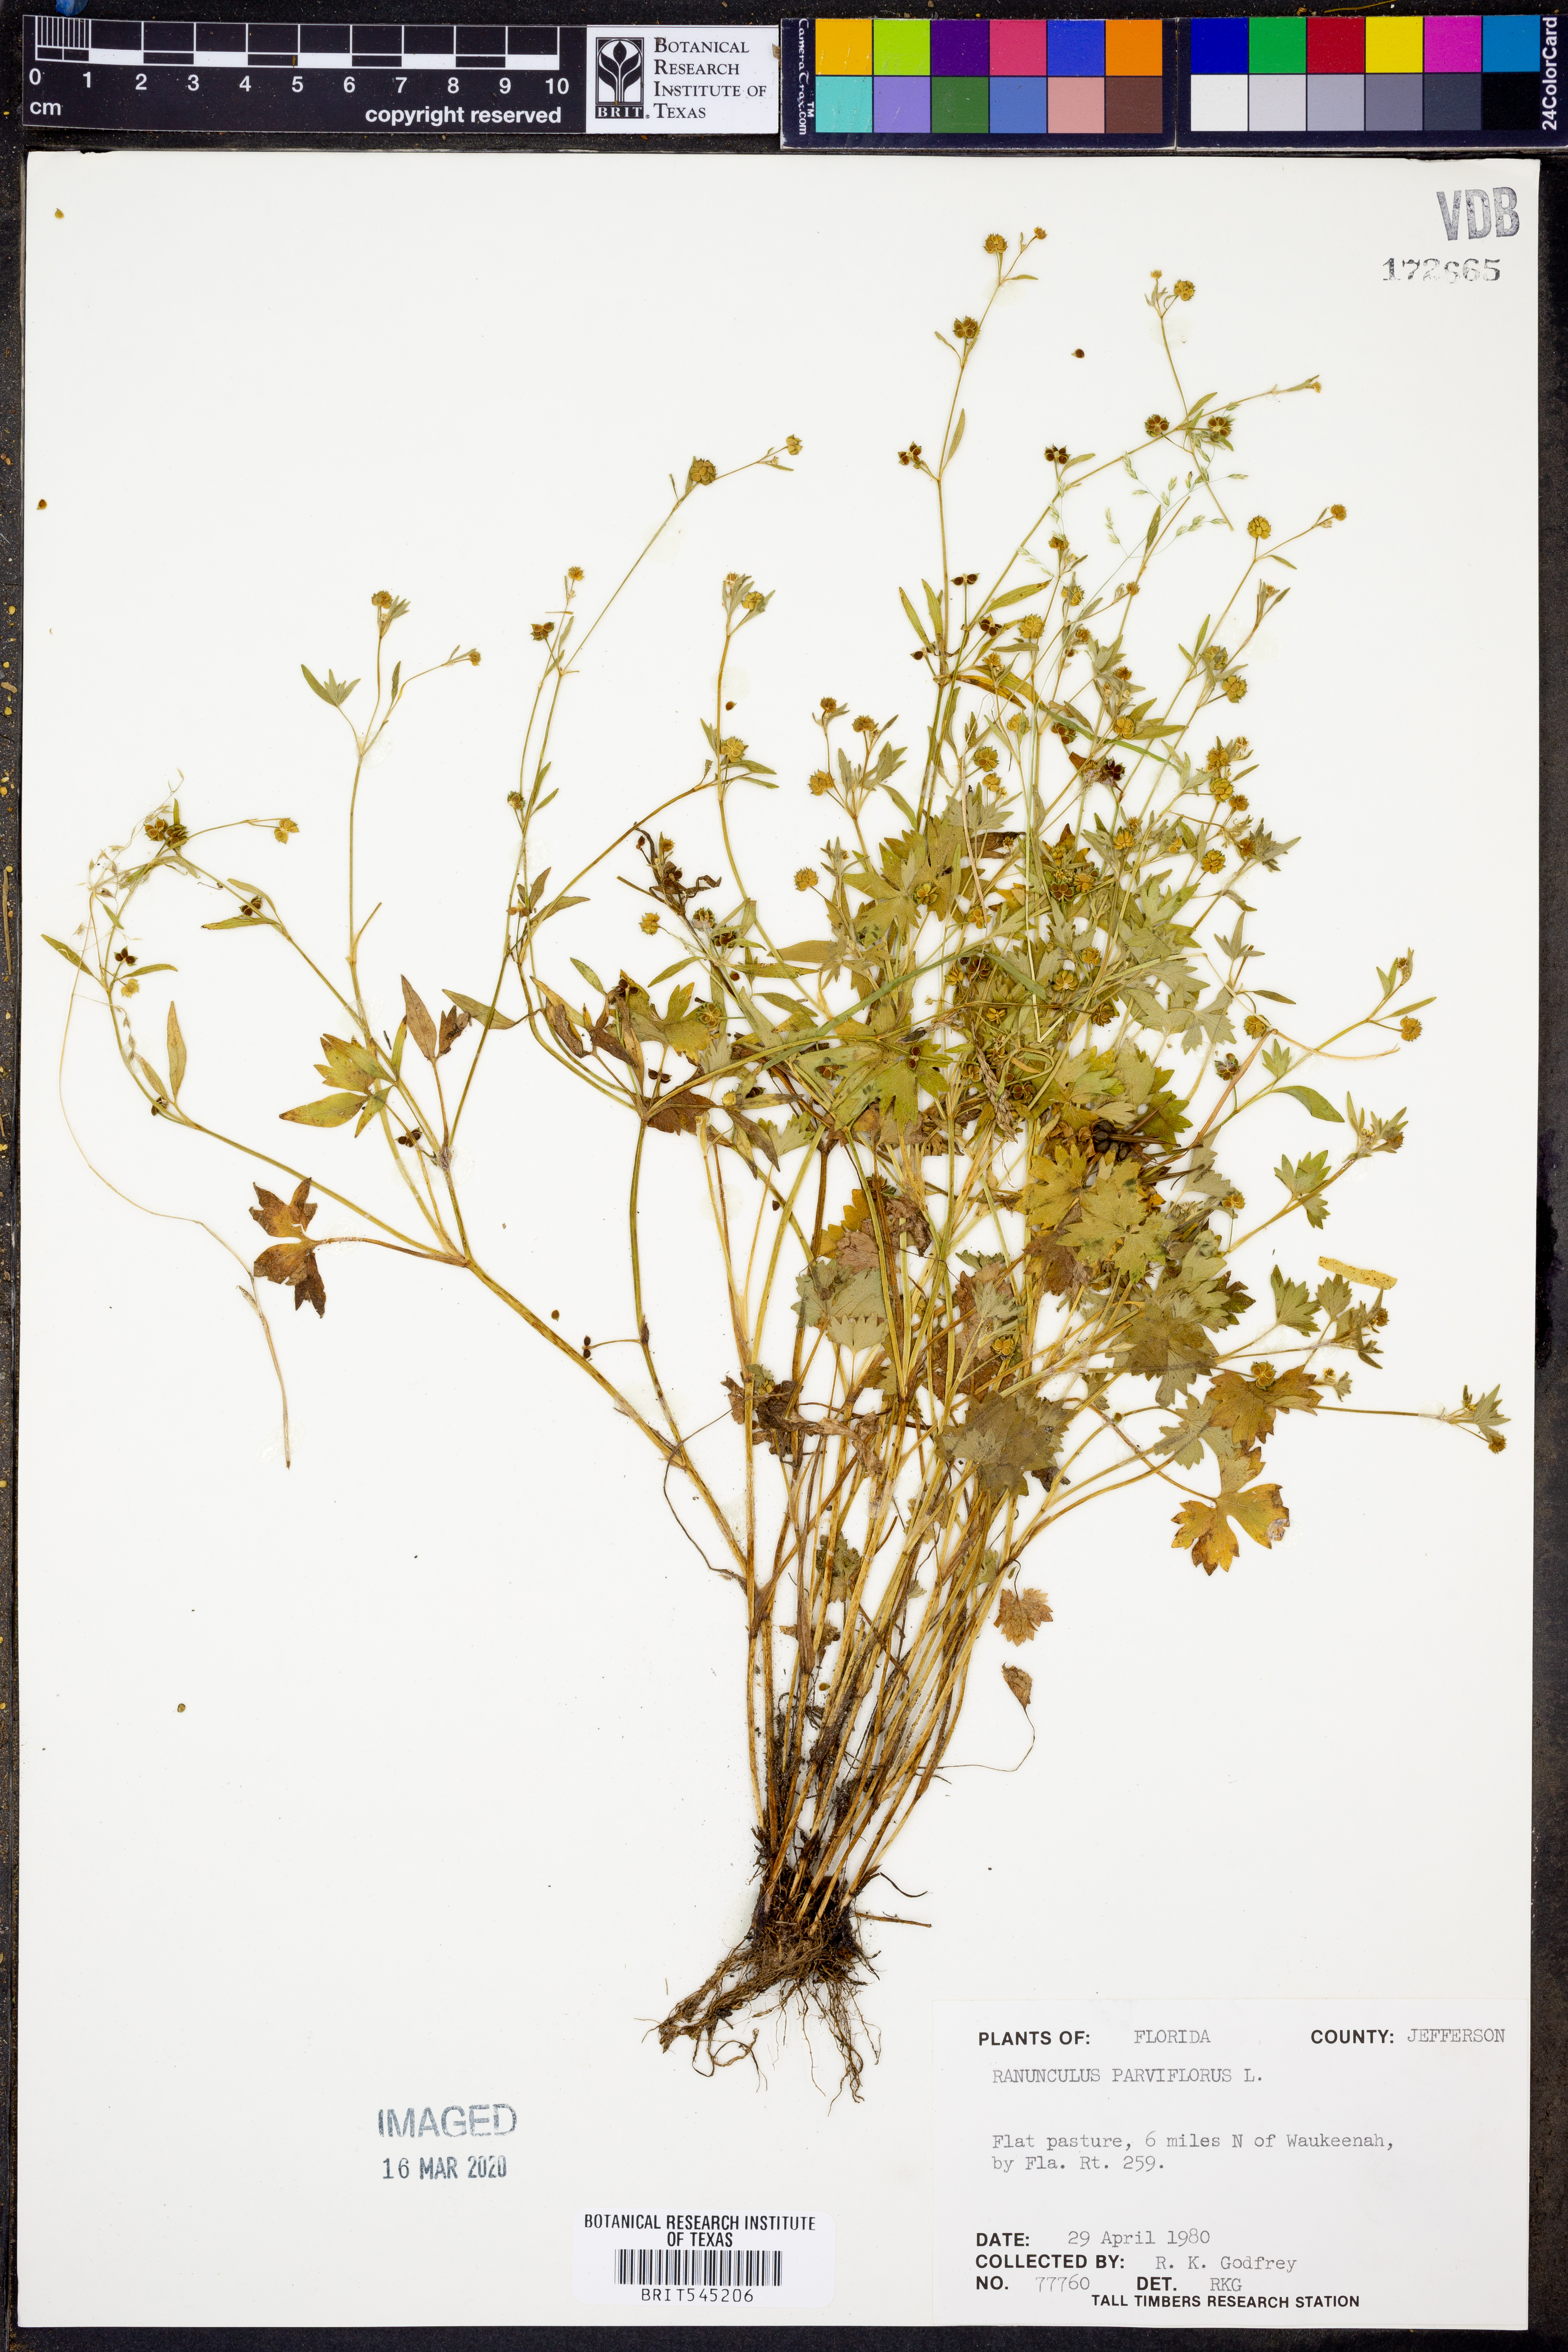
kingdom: Plantae
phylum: Tracheophyta
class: Magnoliopsida
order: Ranunculales
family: Ranunculaceae
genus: Ranunculus
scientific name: Ranunculus parviflorus
